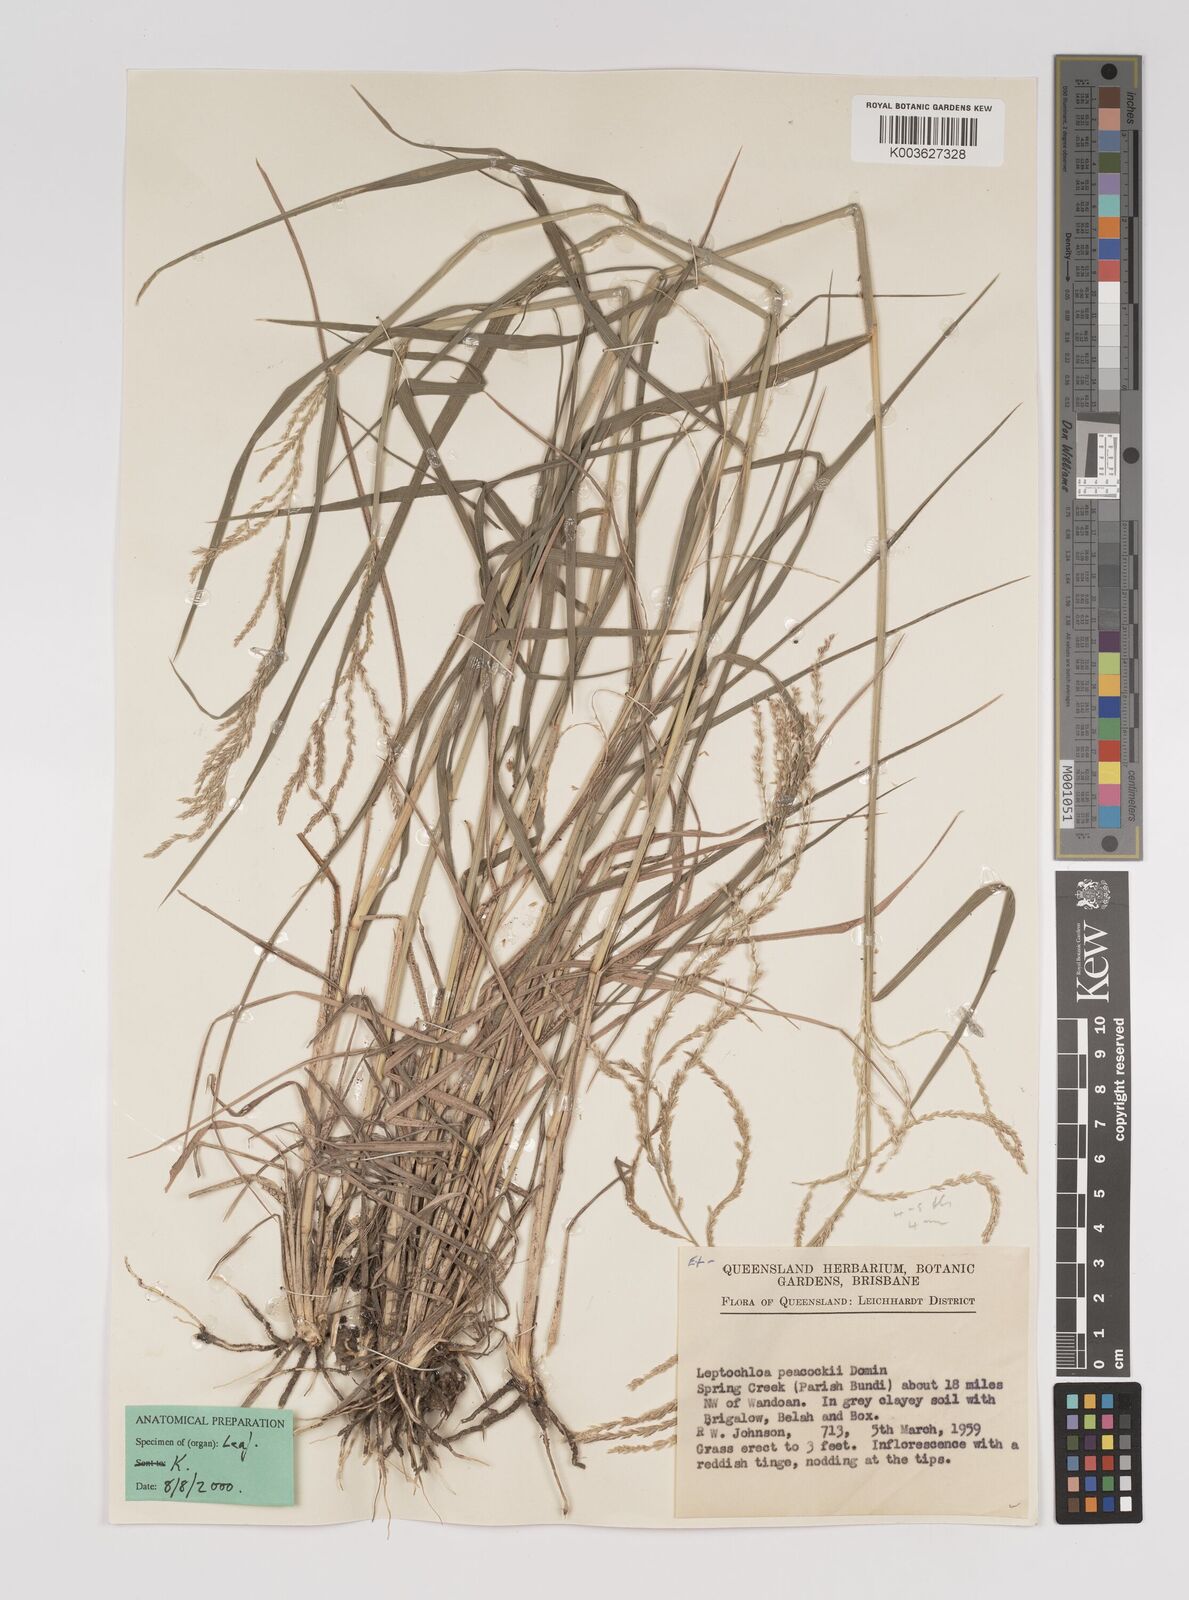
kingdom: Plantae
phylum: Tracheophyta
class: Liliopsida
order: Poales
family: Poaceae
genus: Leptochloa
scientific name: Leptochloa decipiens
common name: Australian sprangletop
